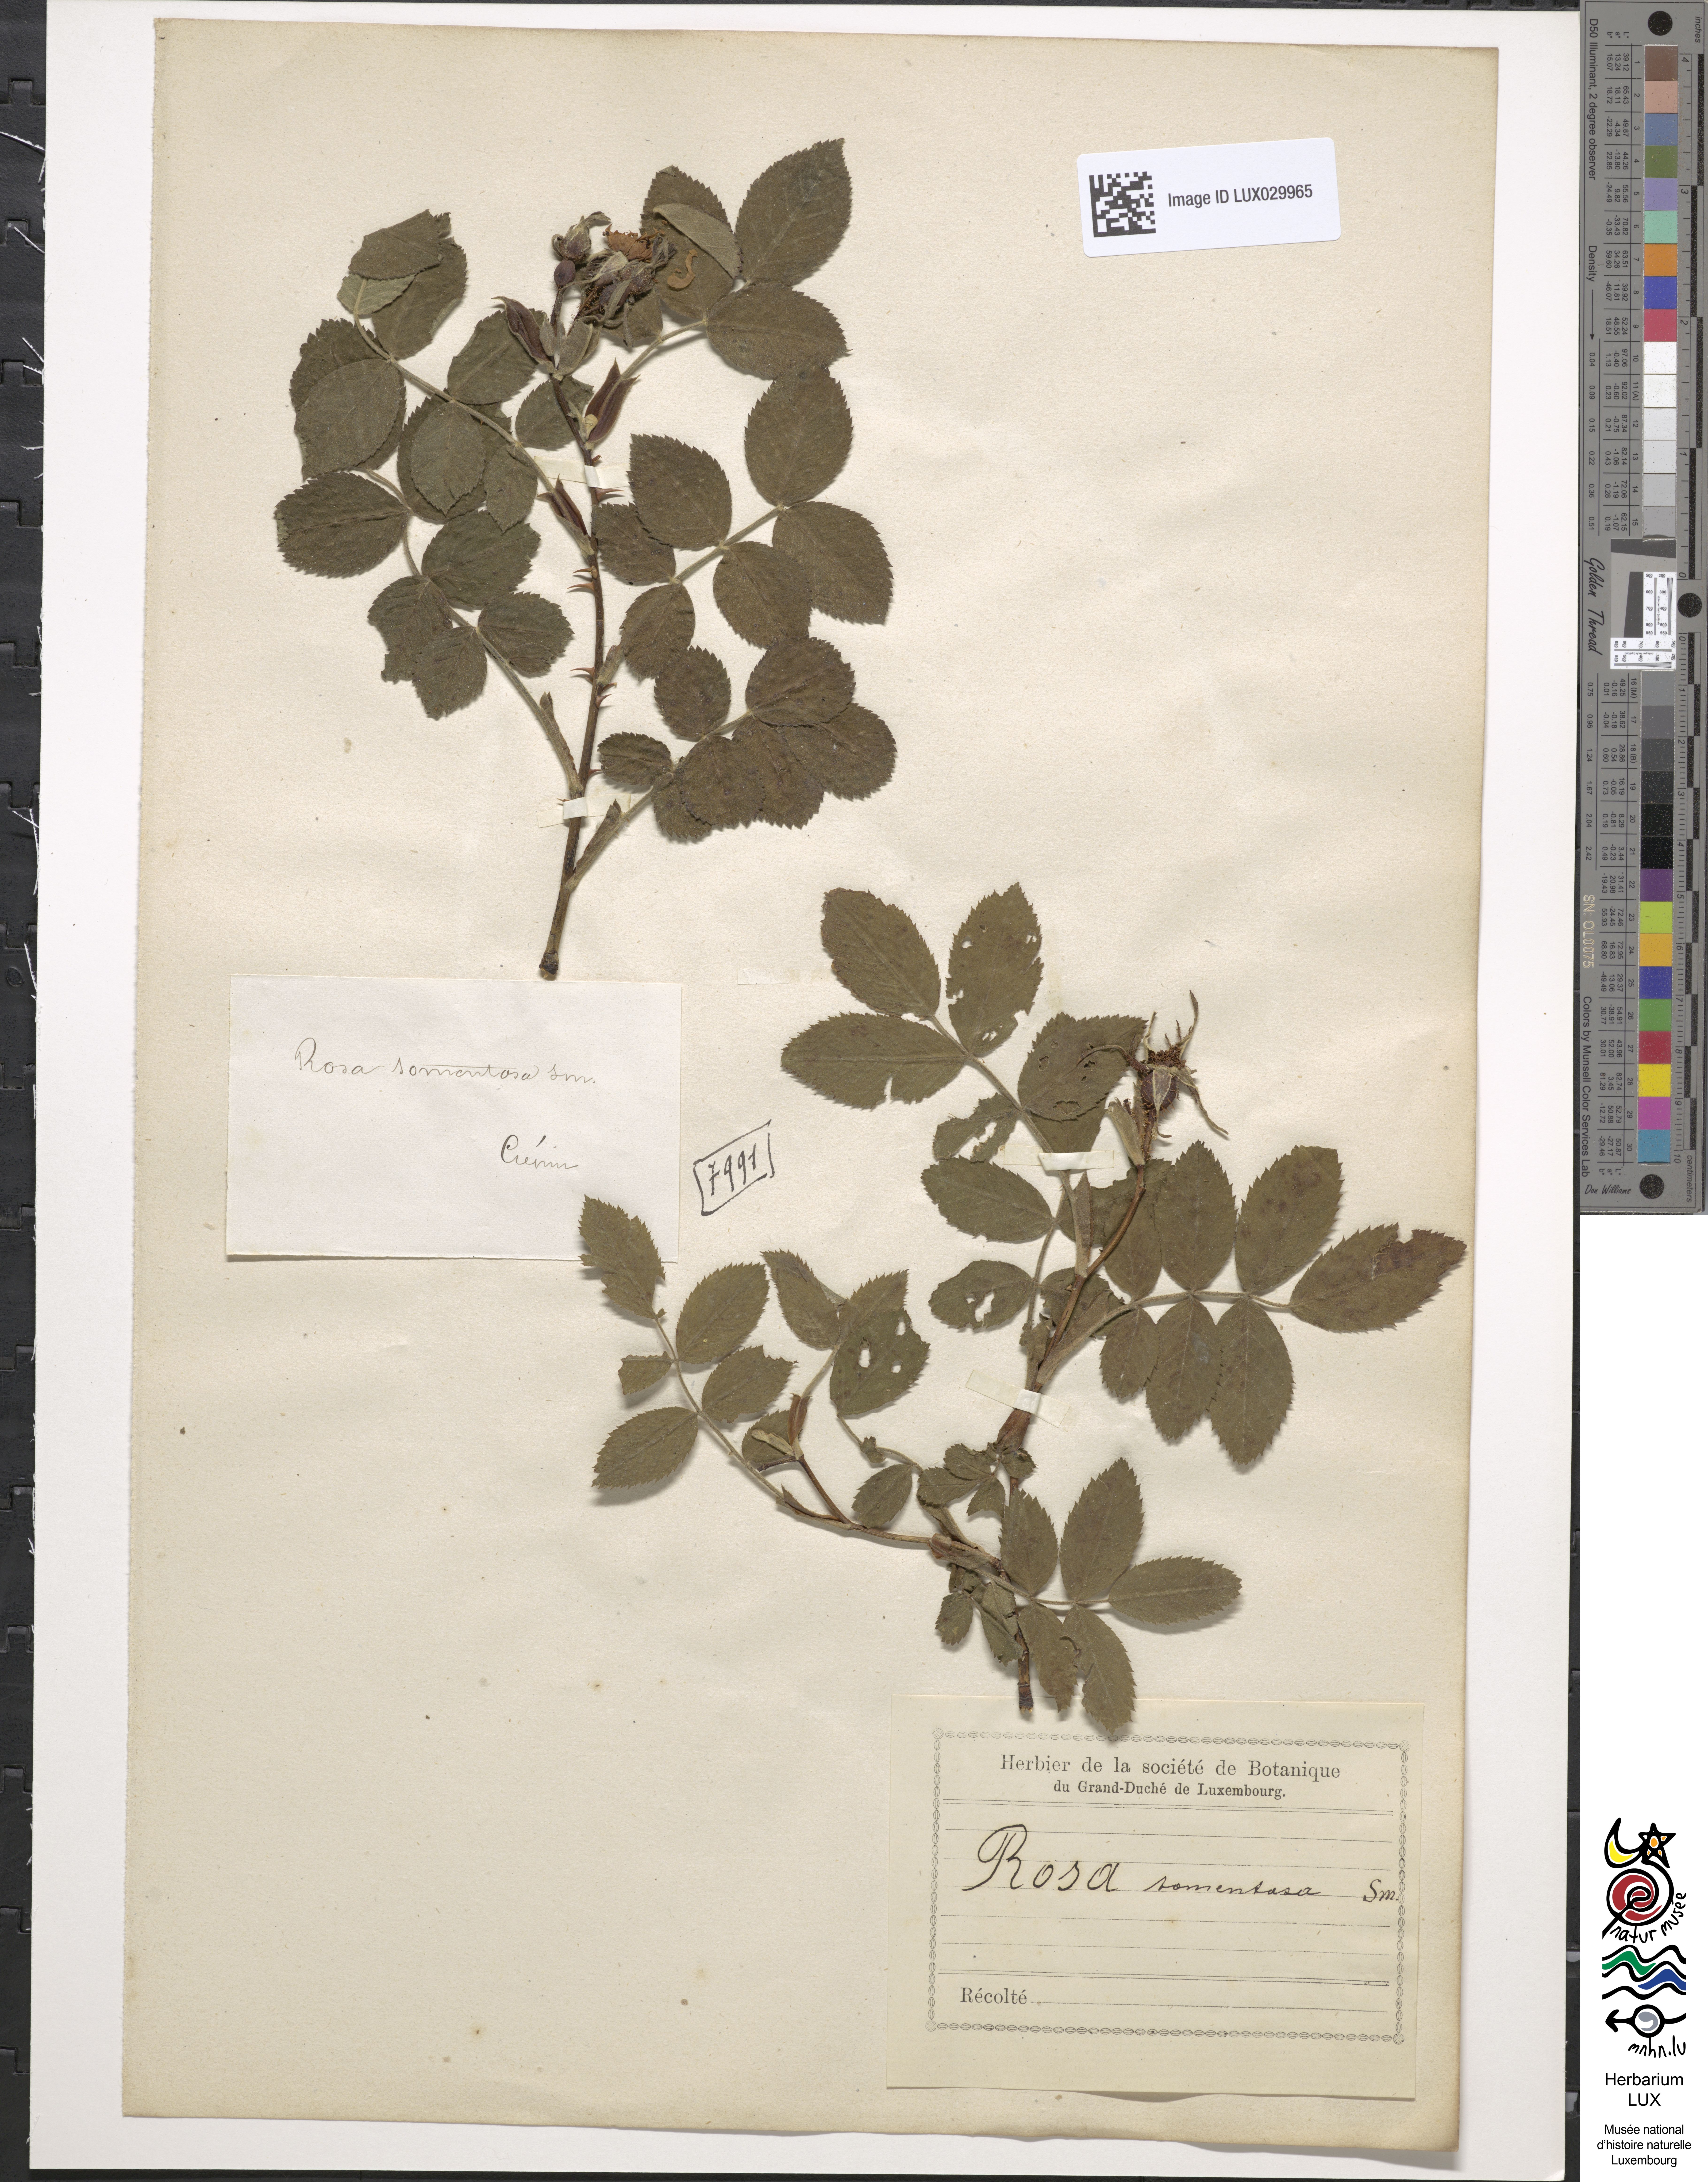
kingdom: Plantae
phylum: Tracheophyta
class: Magnoliopsida
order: Rosales
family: Rosaceae
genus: Rosa
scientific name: Rosa tomentosa
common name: Downy rose
